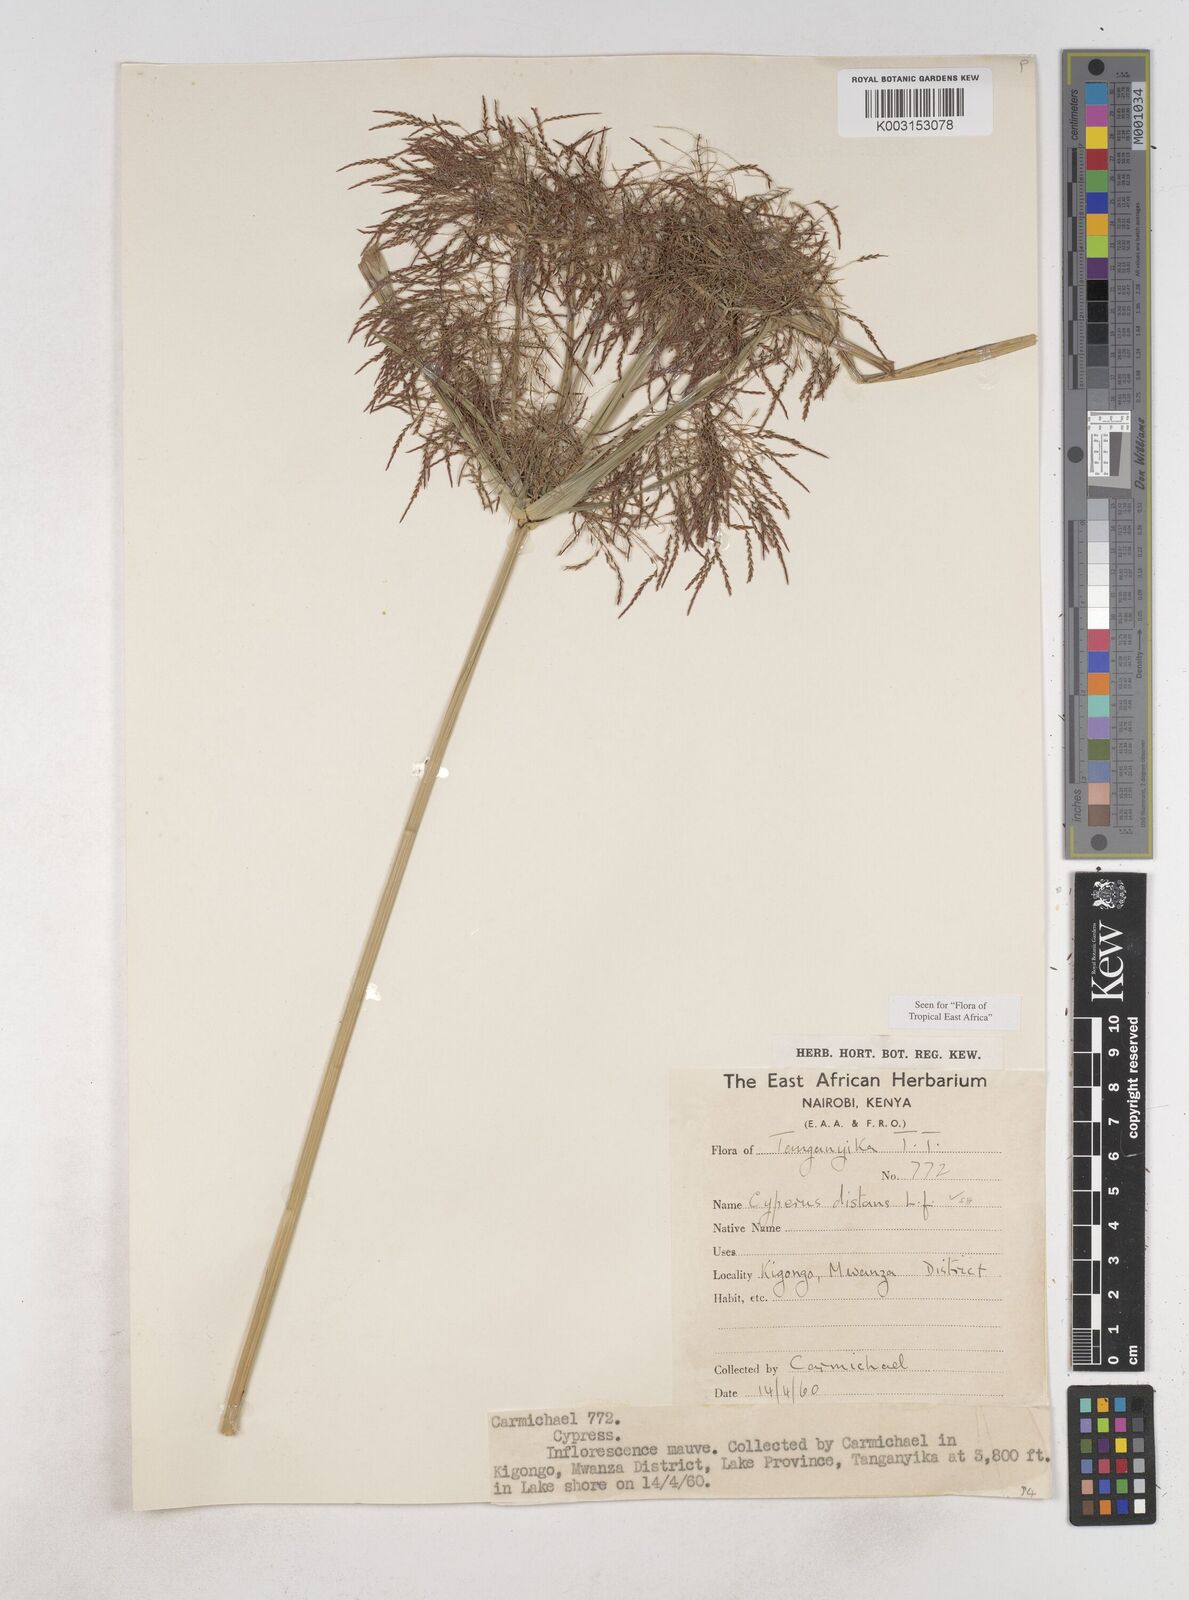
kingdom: Plantae
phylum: Tracheophyta
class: Liliopsida
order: Poales
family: Cyperaceae
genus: Cyperus
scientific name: Cyperus distans
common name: Slender cyperus
